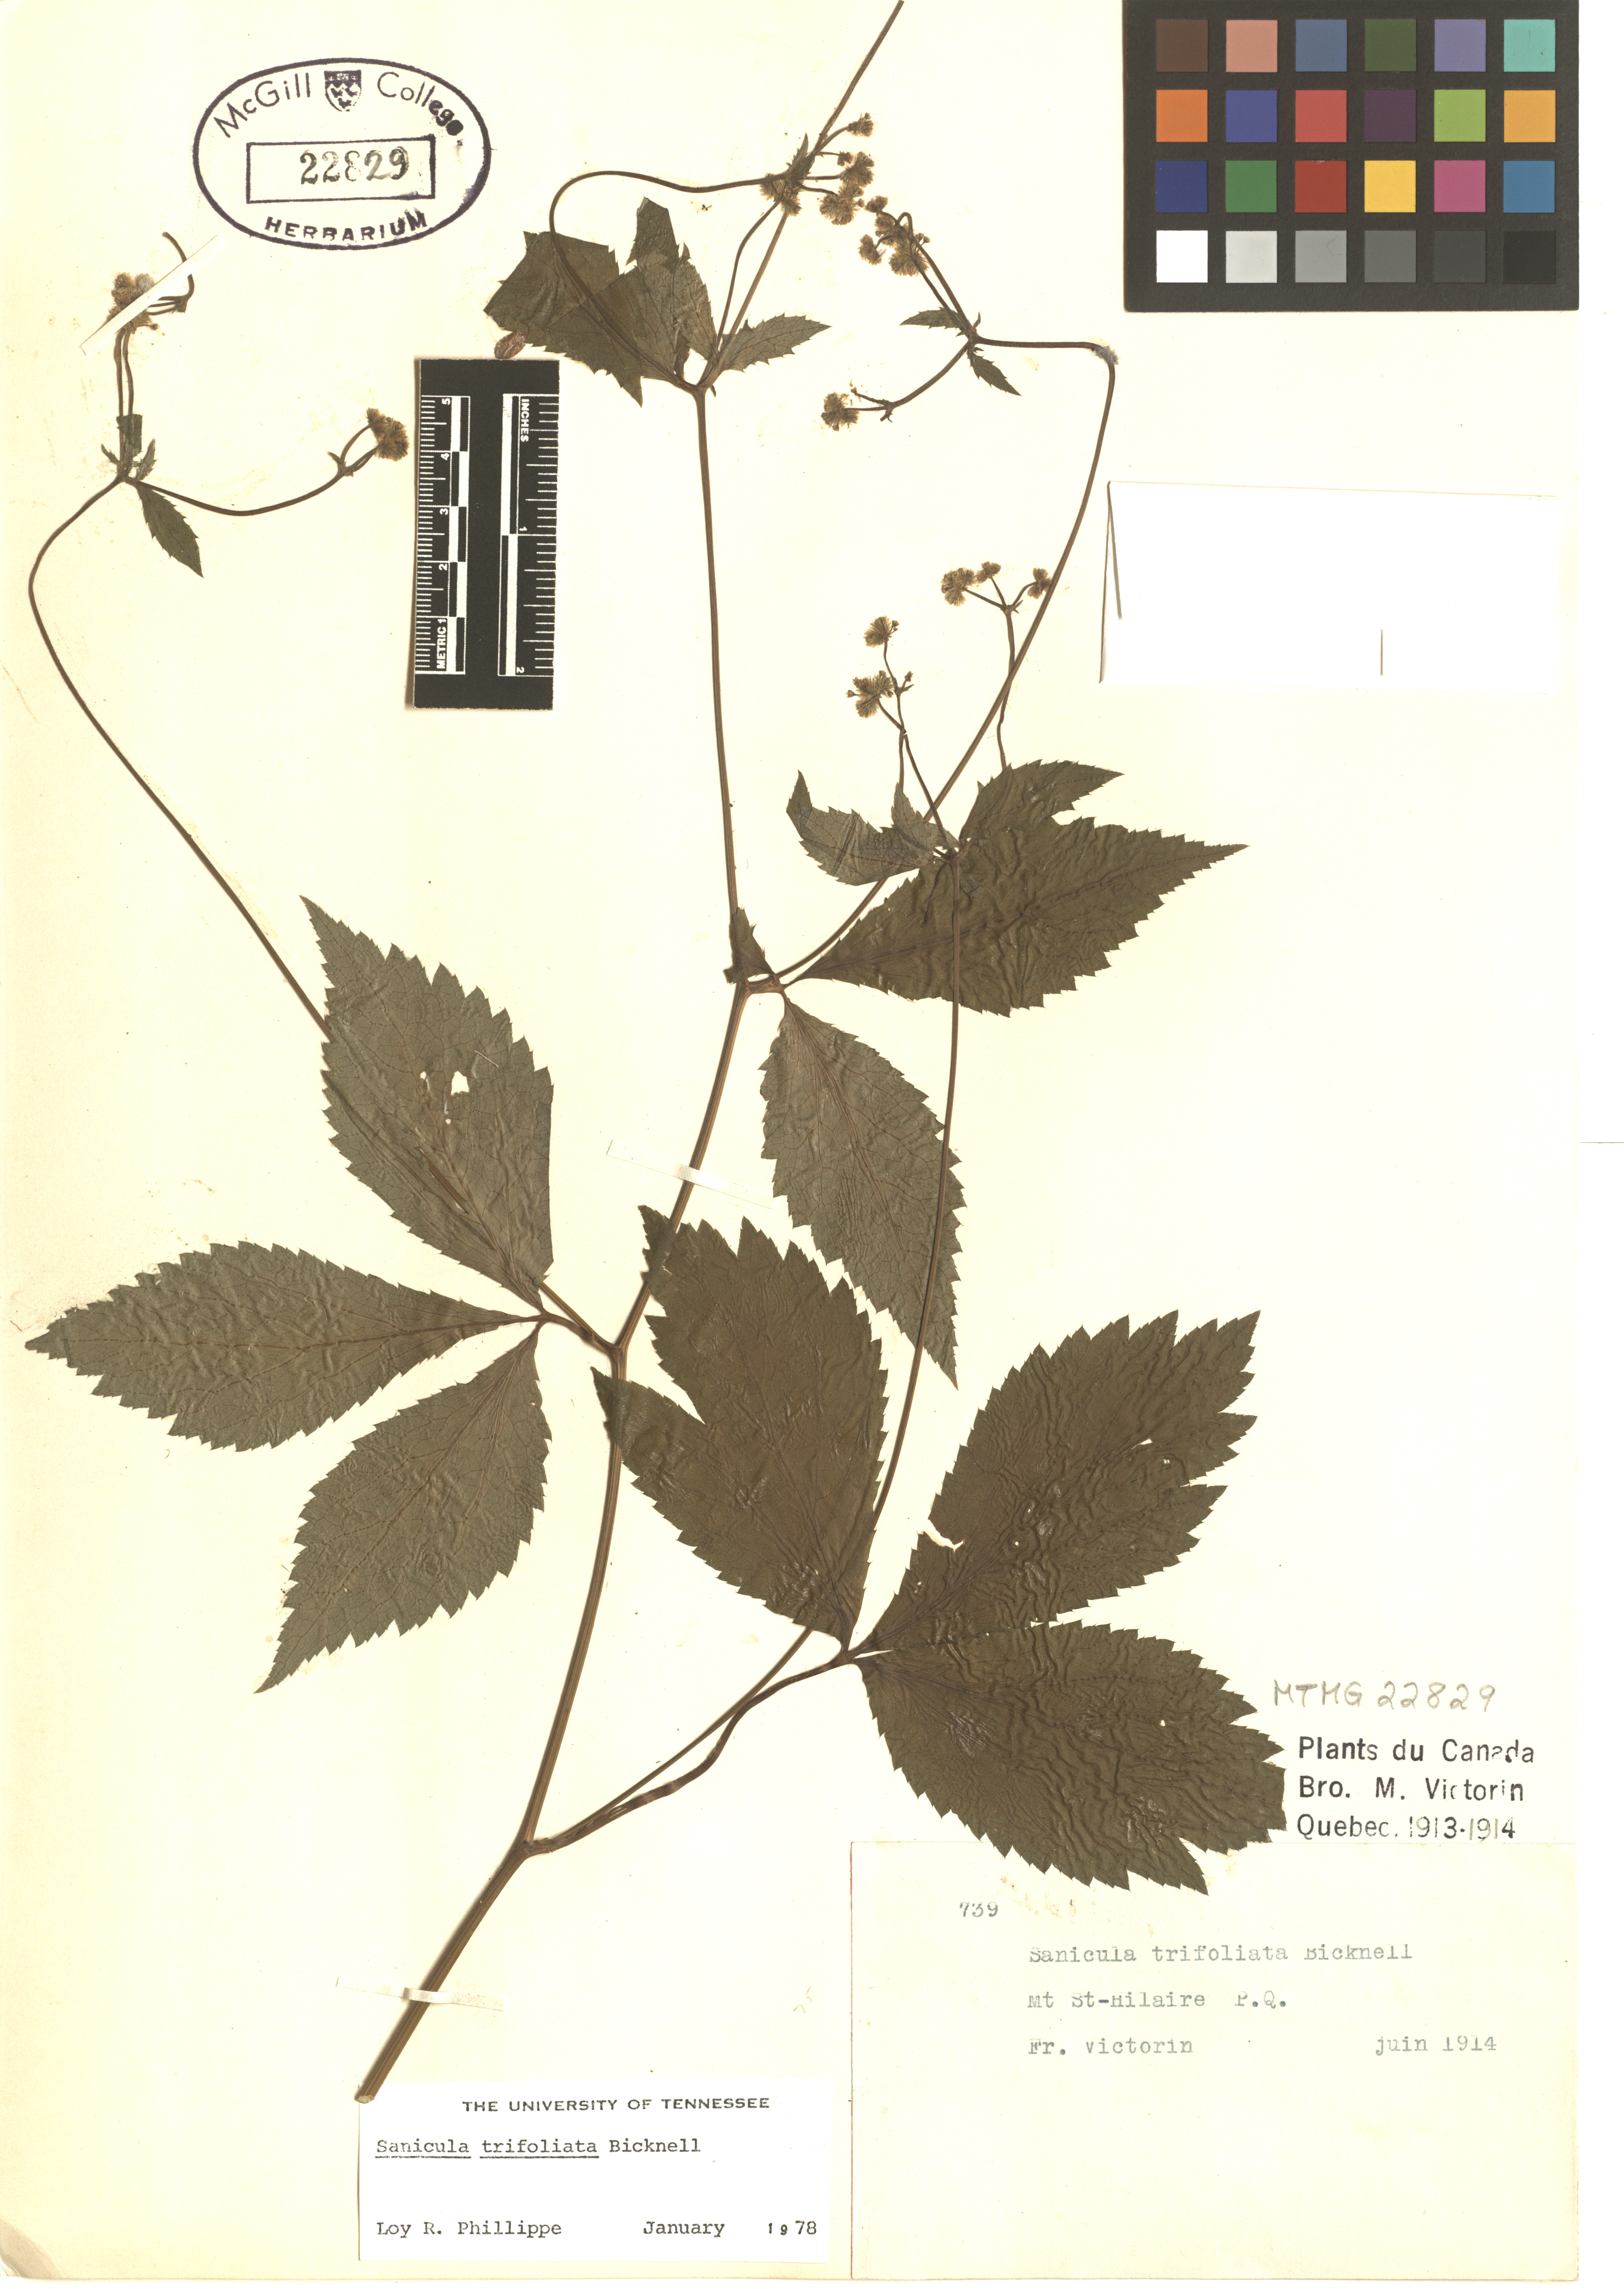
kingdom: Plantae
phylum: Tracheophyta
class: Magnoliopsida
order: Apiales
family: Apiaceae
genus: Sanicula
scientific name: Sanicula trifoliata
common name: Beaked sanicle
